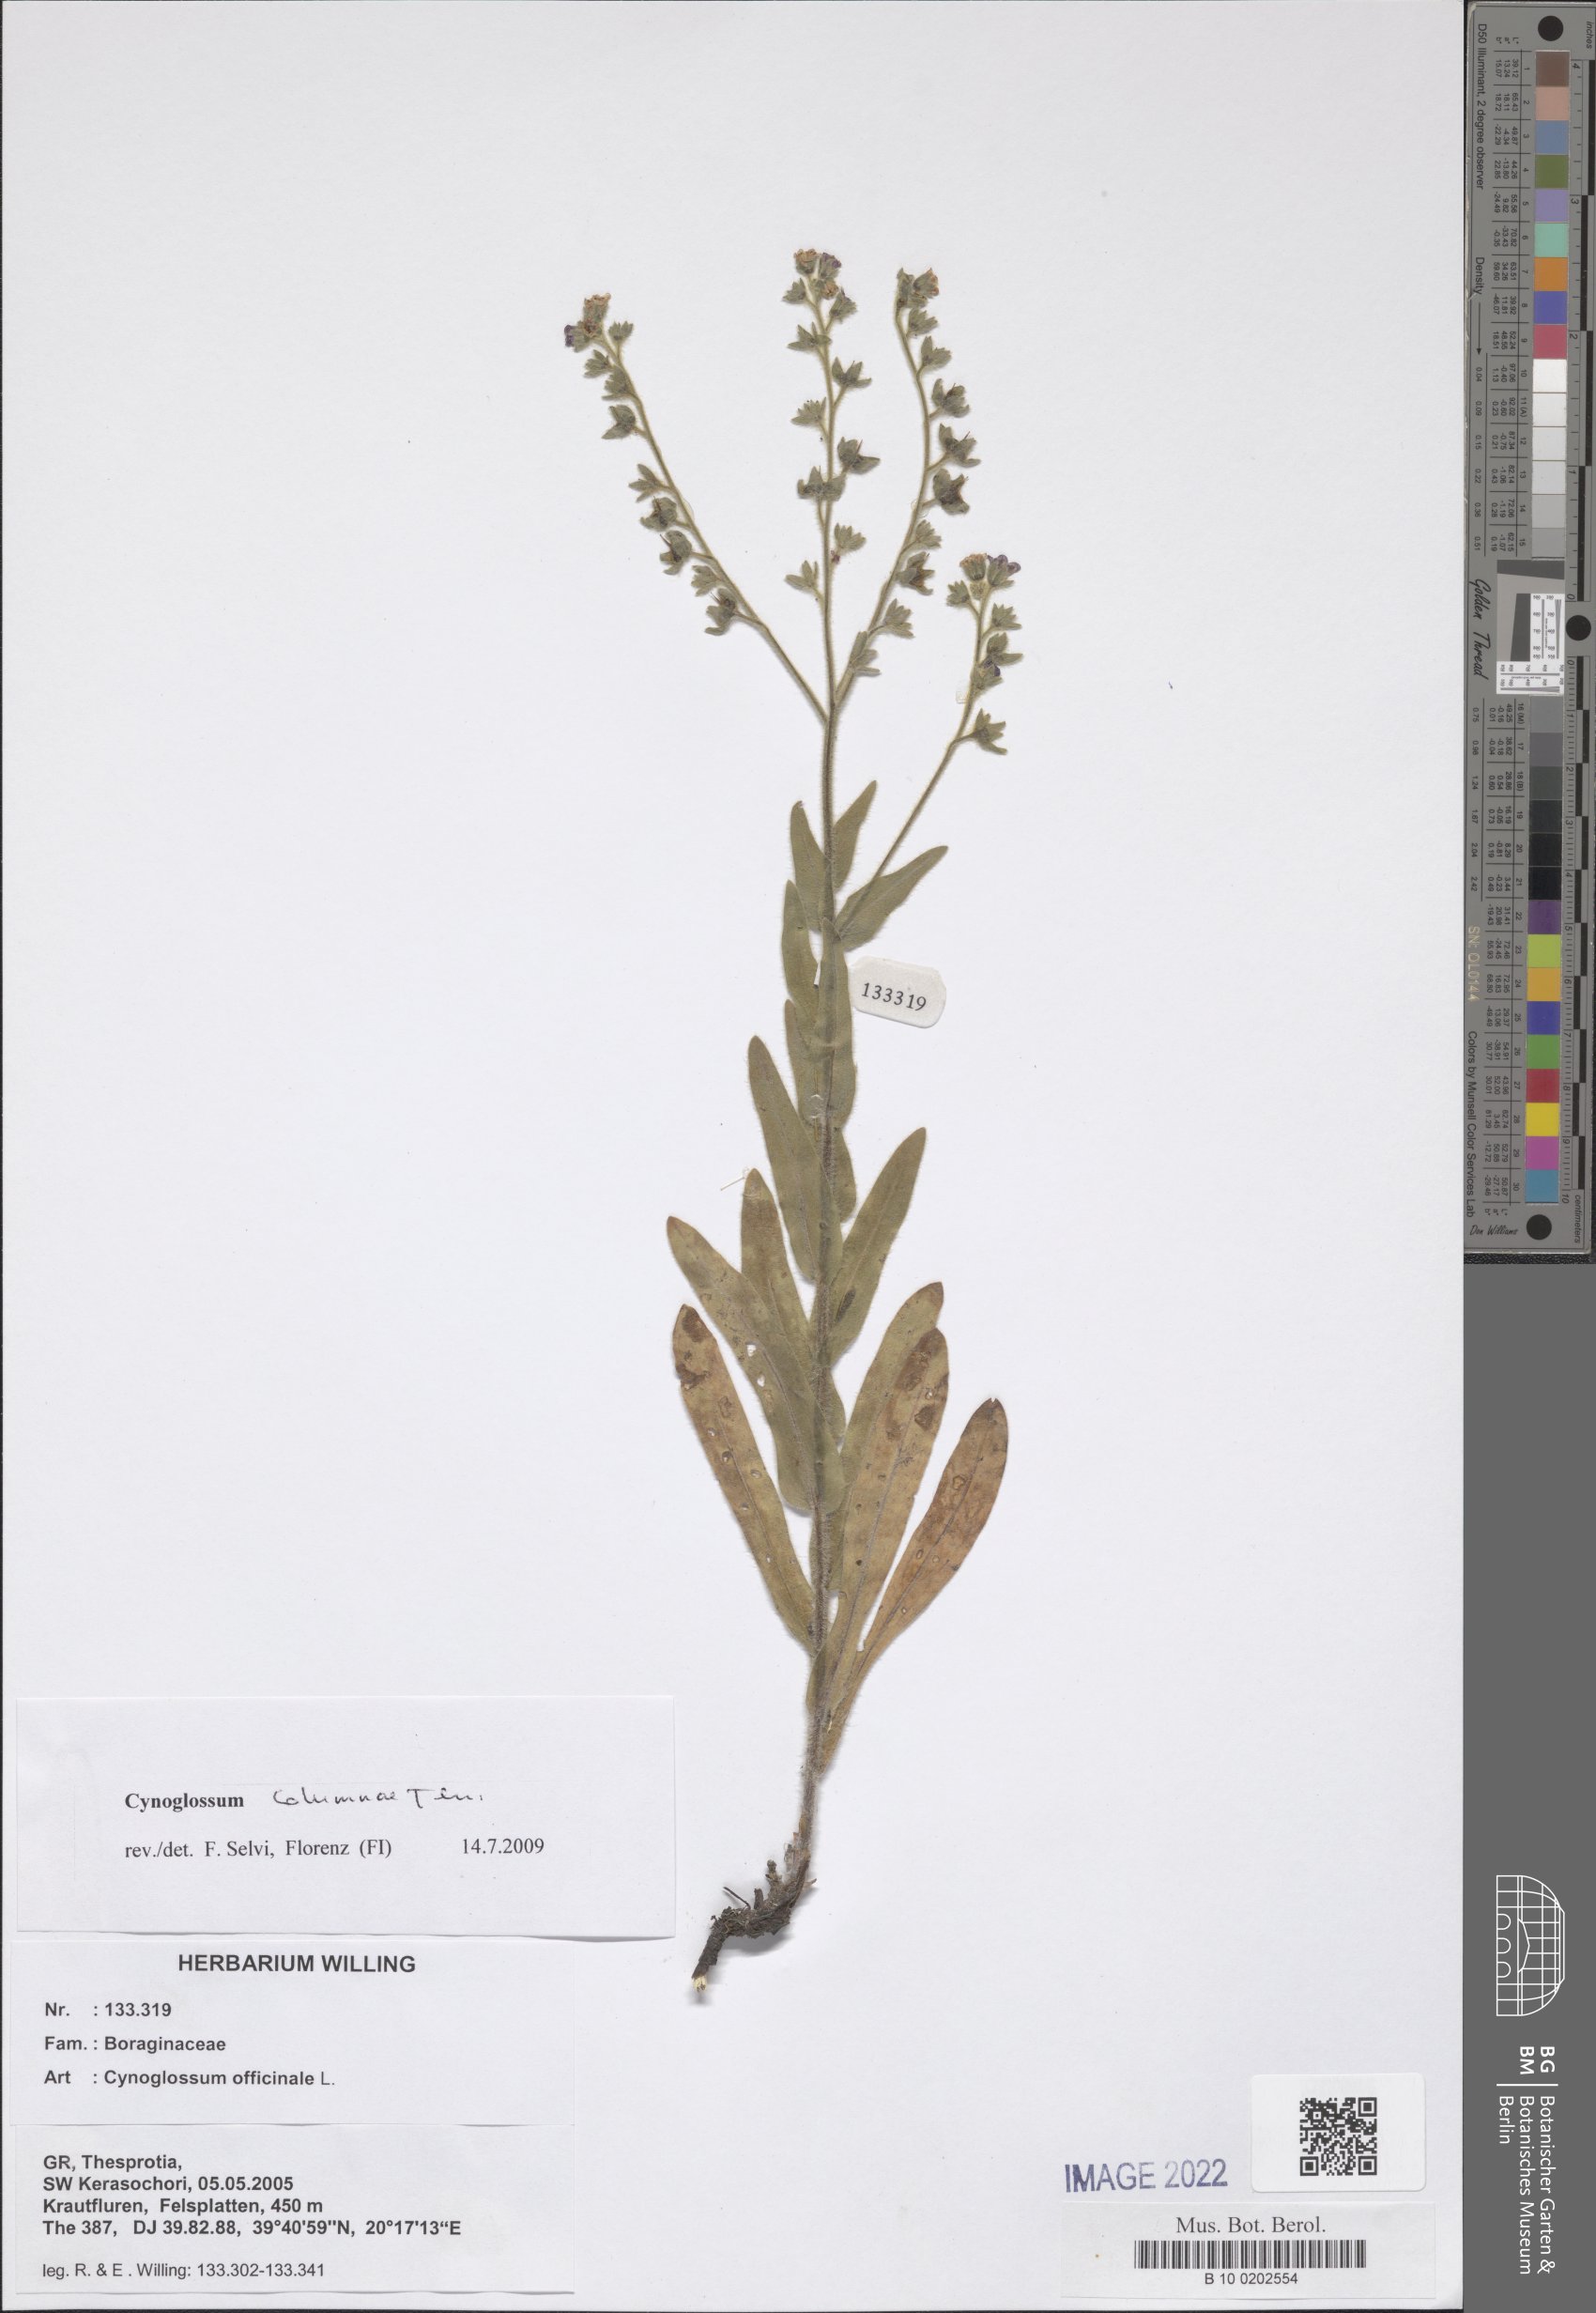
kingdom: Plantae
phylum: Tracheophyta
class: Magnoliopsida
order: Boraginales
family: Boraginaceae
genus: Rindera
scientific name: Rindera columnae
